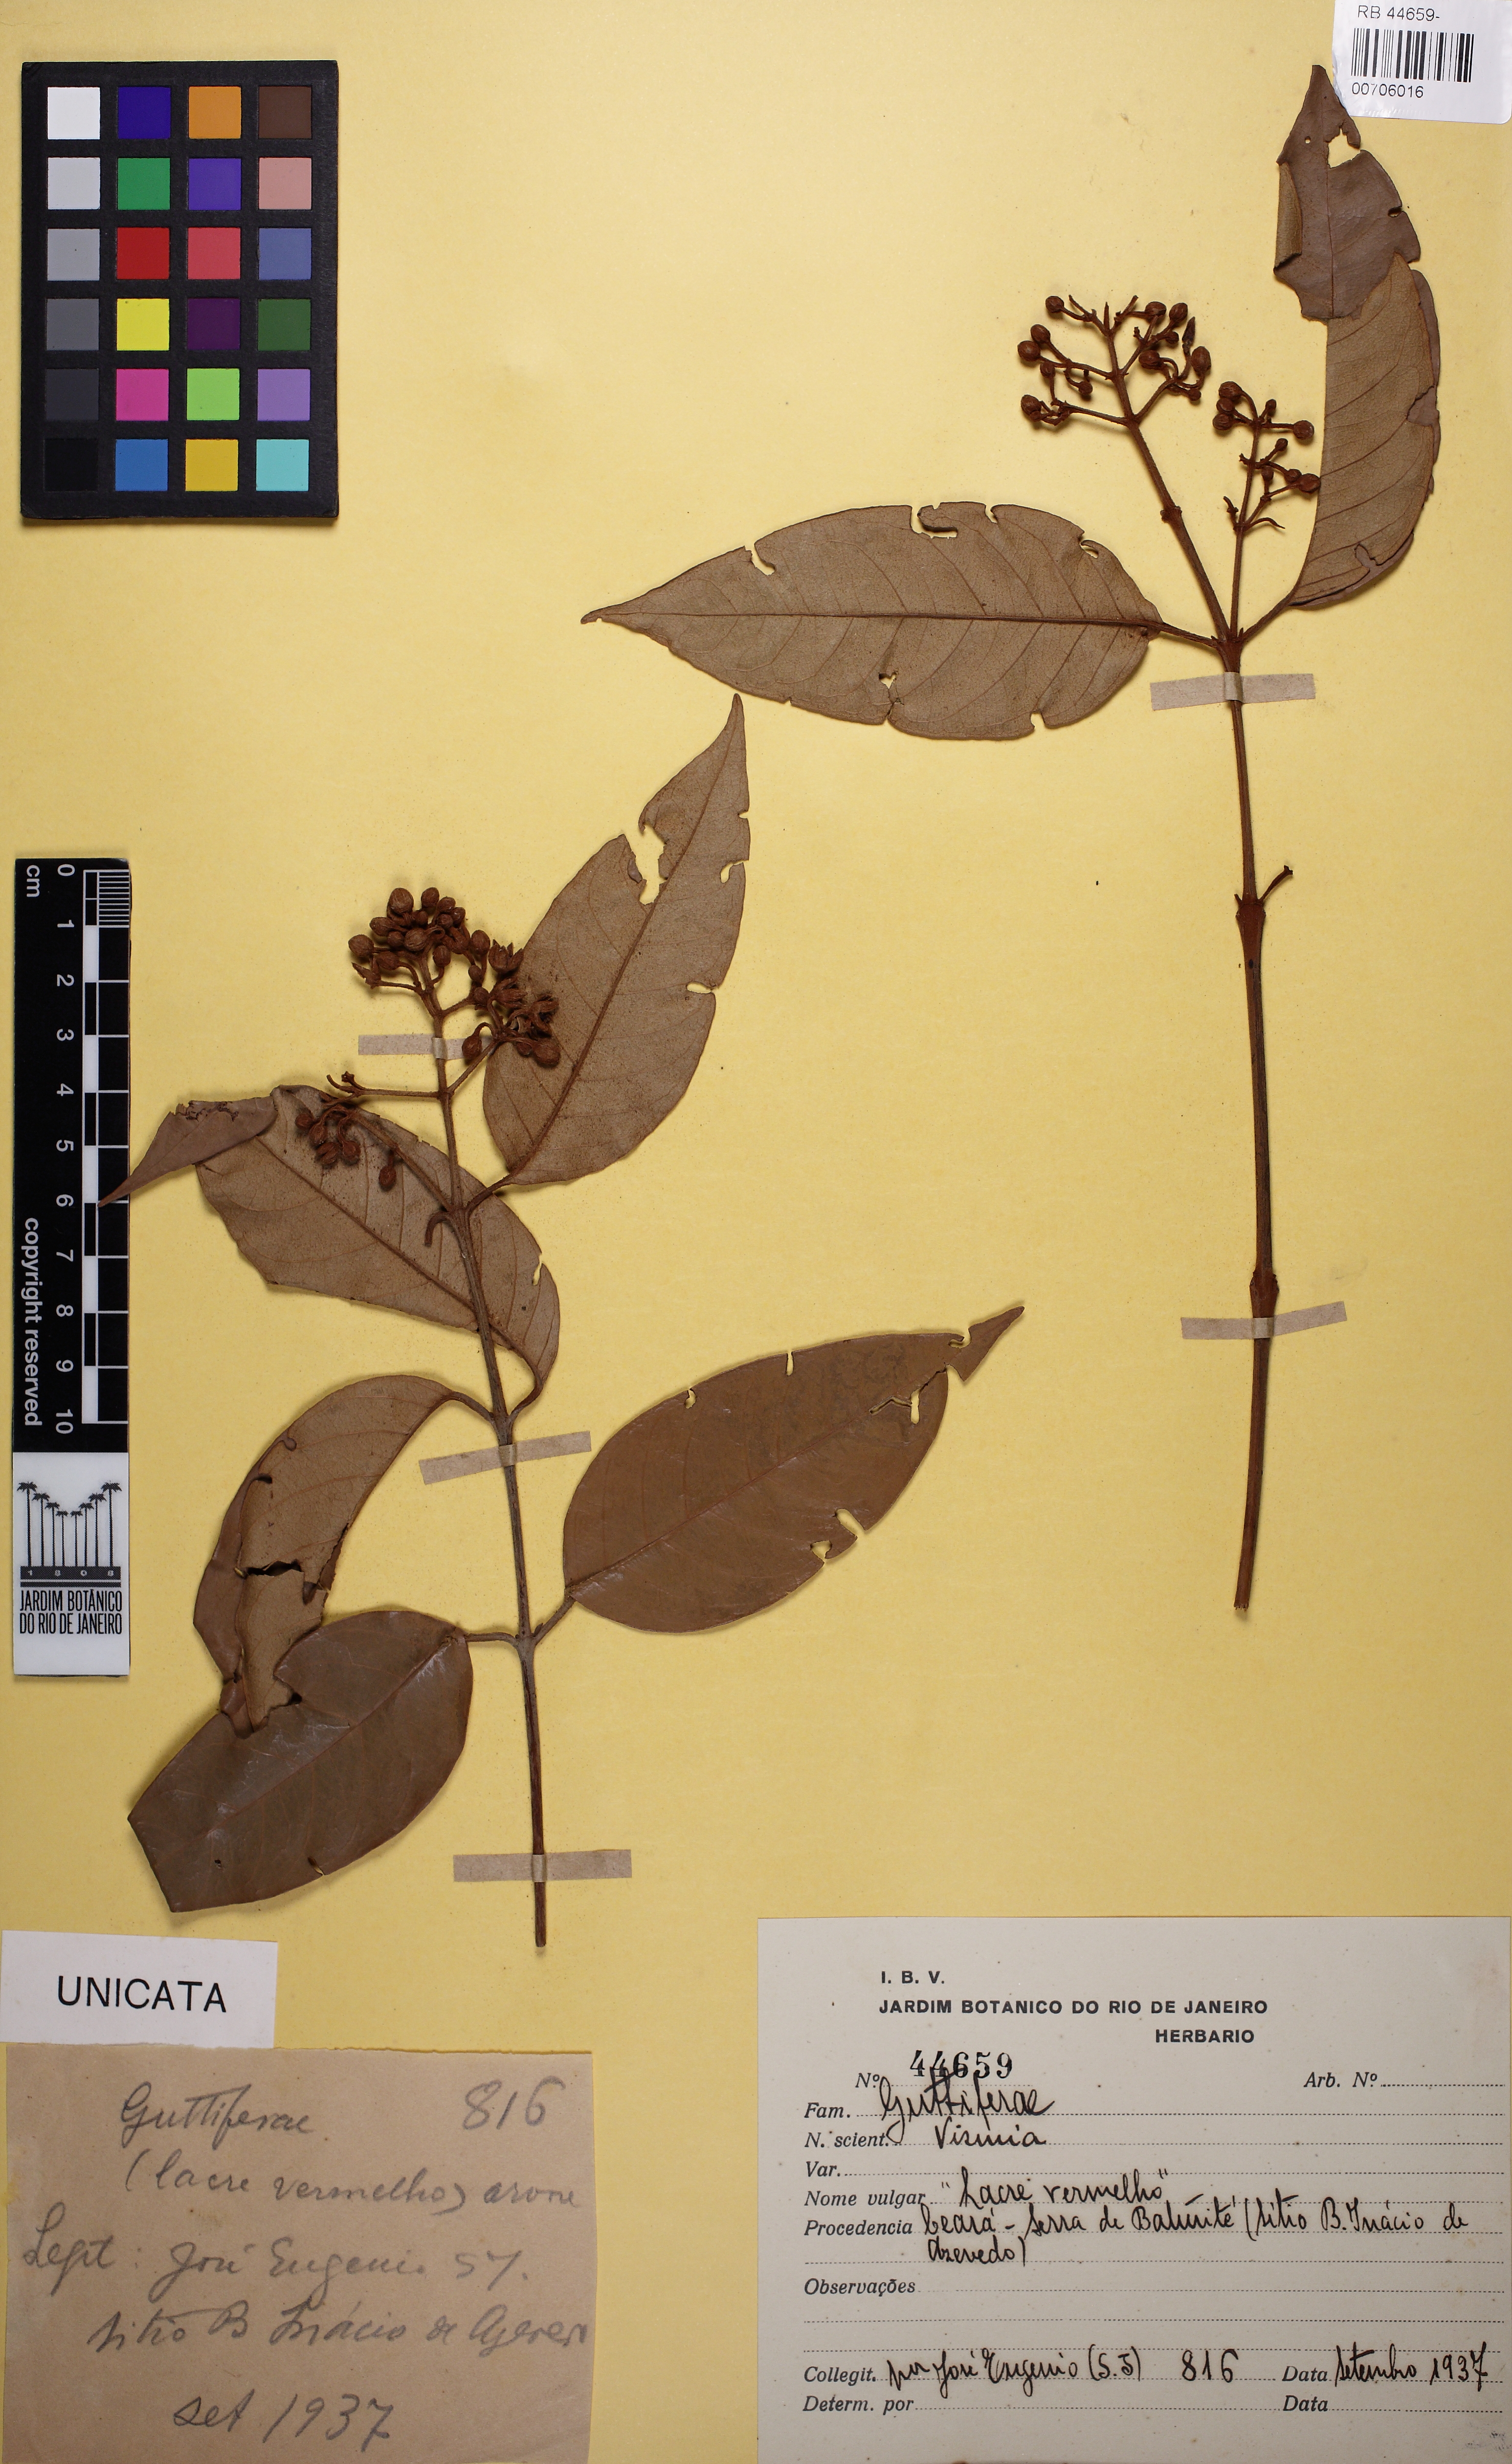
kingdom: Plantae
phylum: Tracheophyta
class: Magnoliopsida
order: Malpighiales
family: Hypericaceae
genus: Vismia
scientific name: Vismia guianensis
